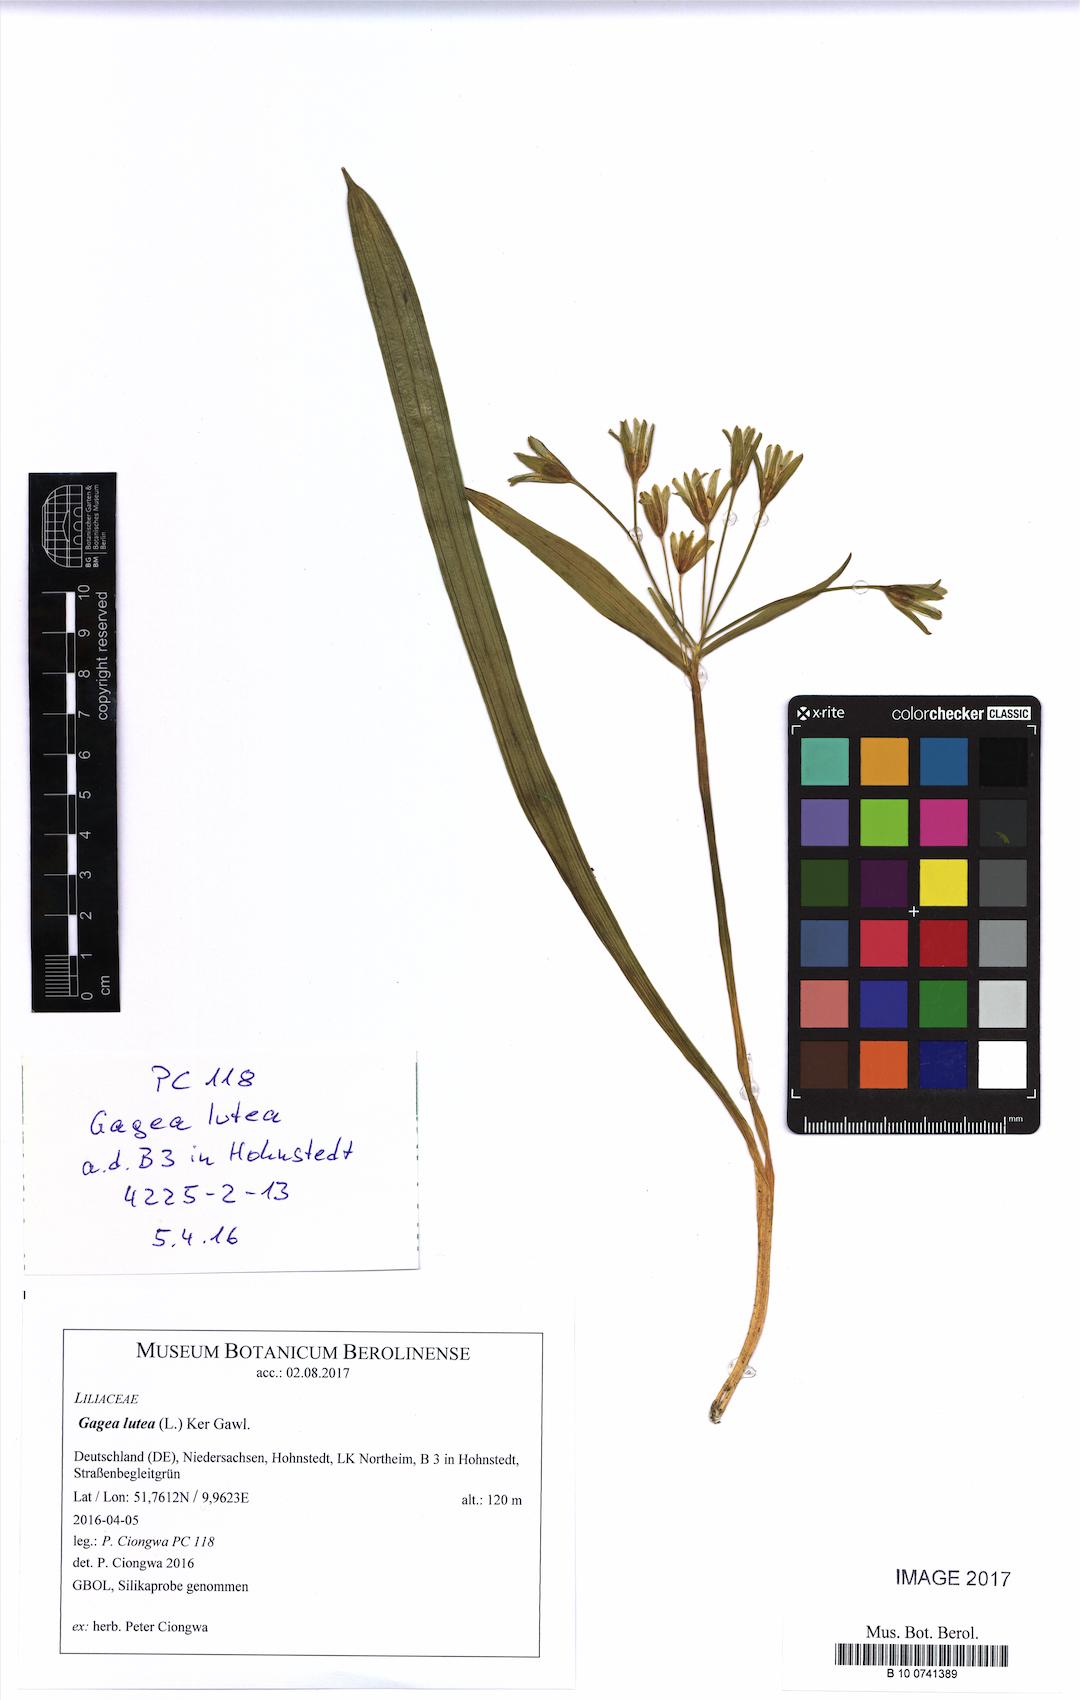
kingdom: Plantae
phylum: Tracheophyta
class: Liliopsida
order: Liliales
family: Liliaceae
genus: Gagea
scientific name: Gagea lutea
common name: Yellow star-of-bethlehem
